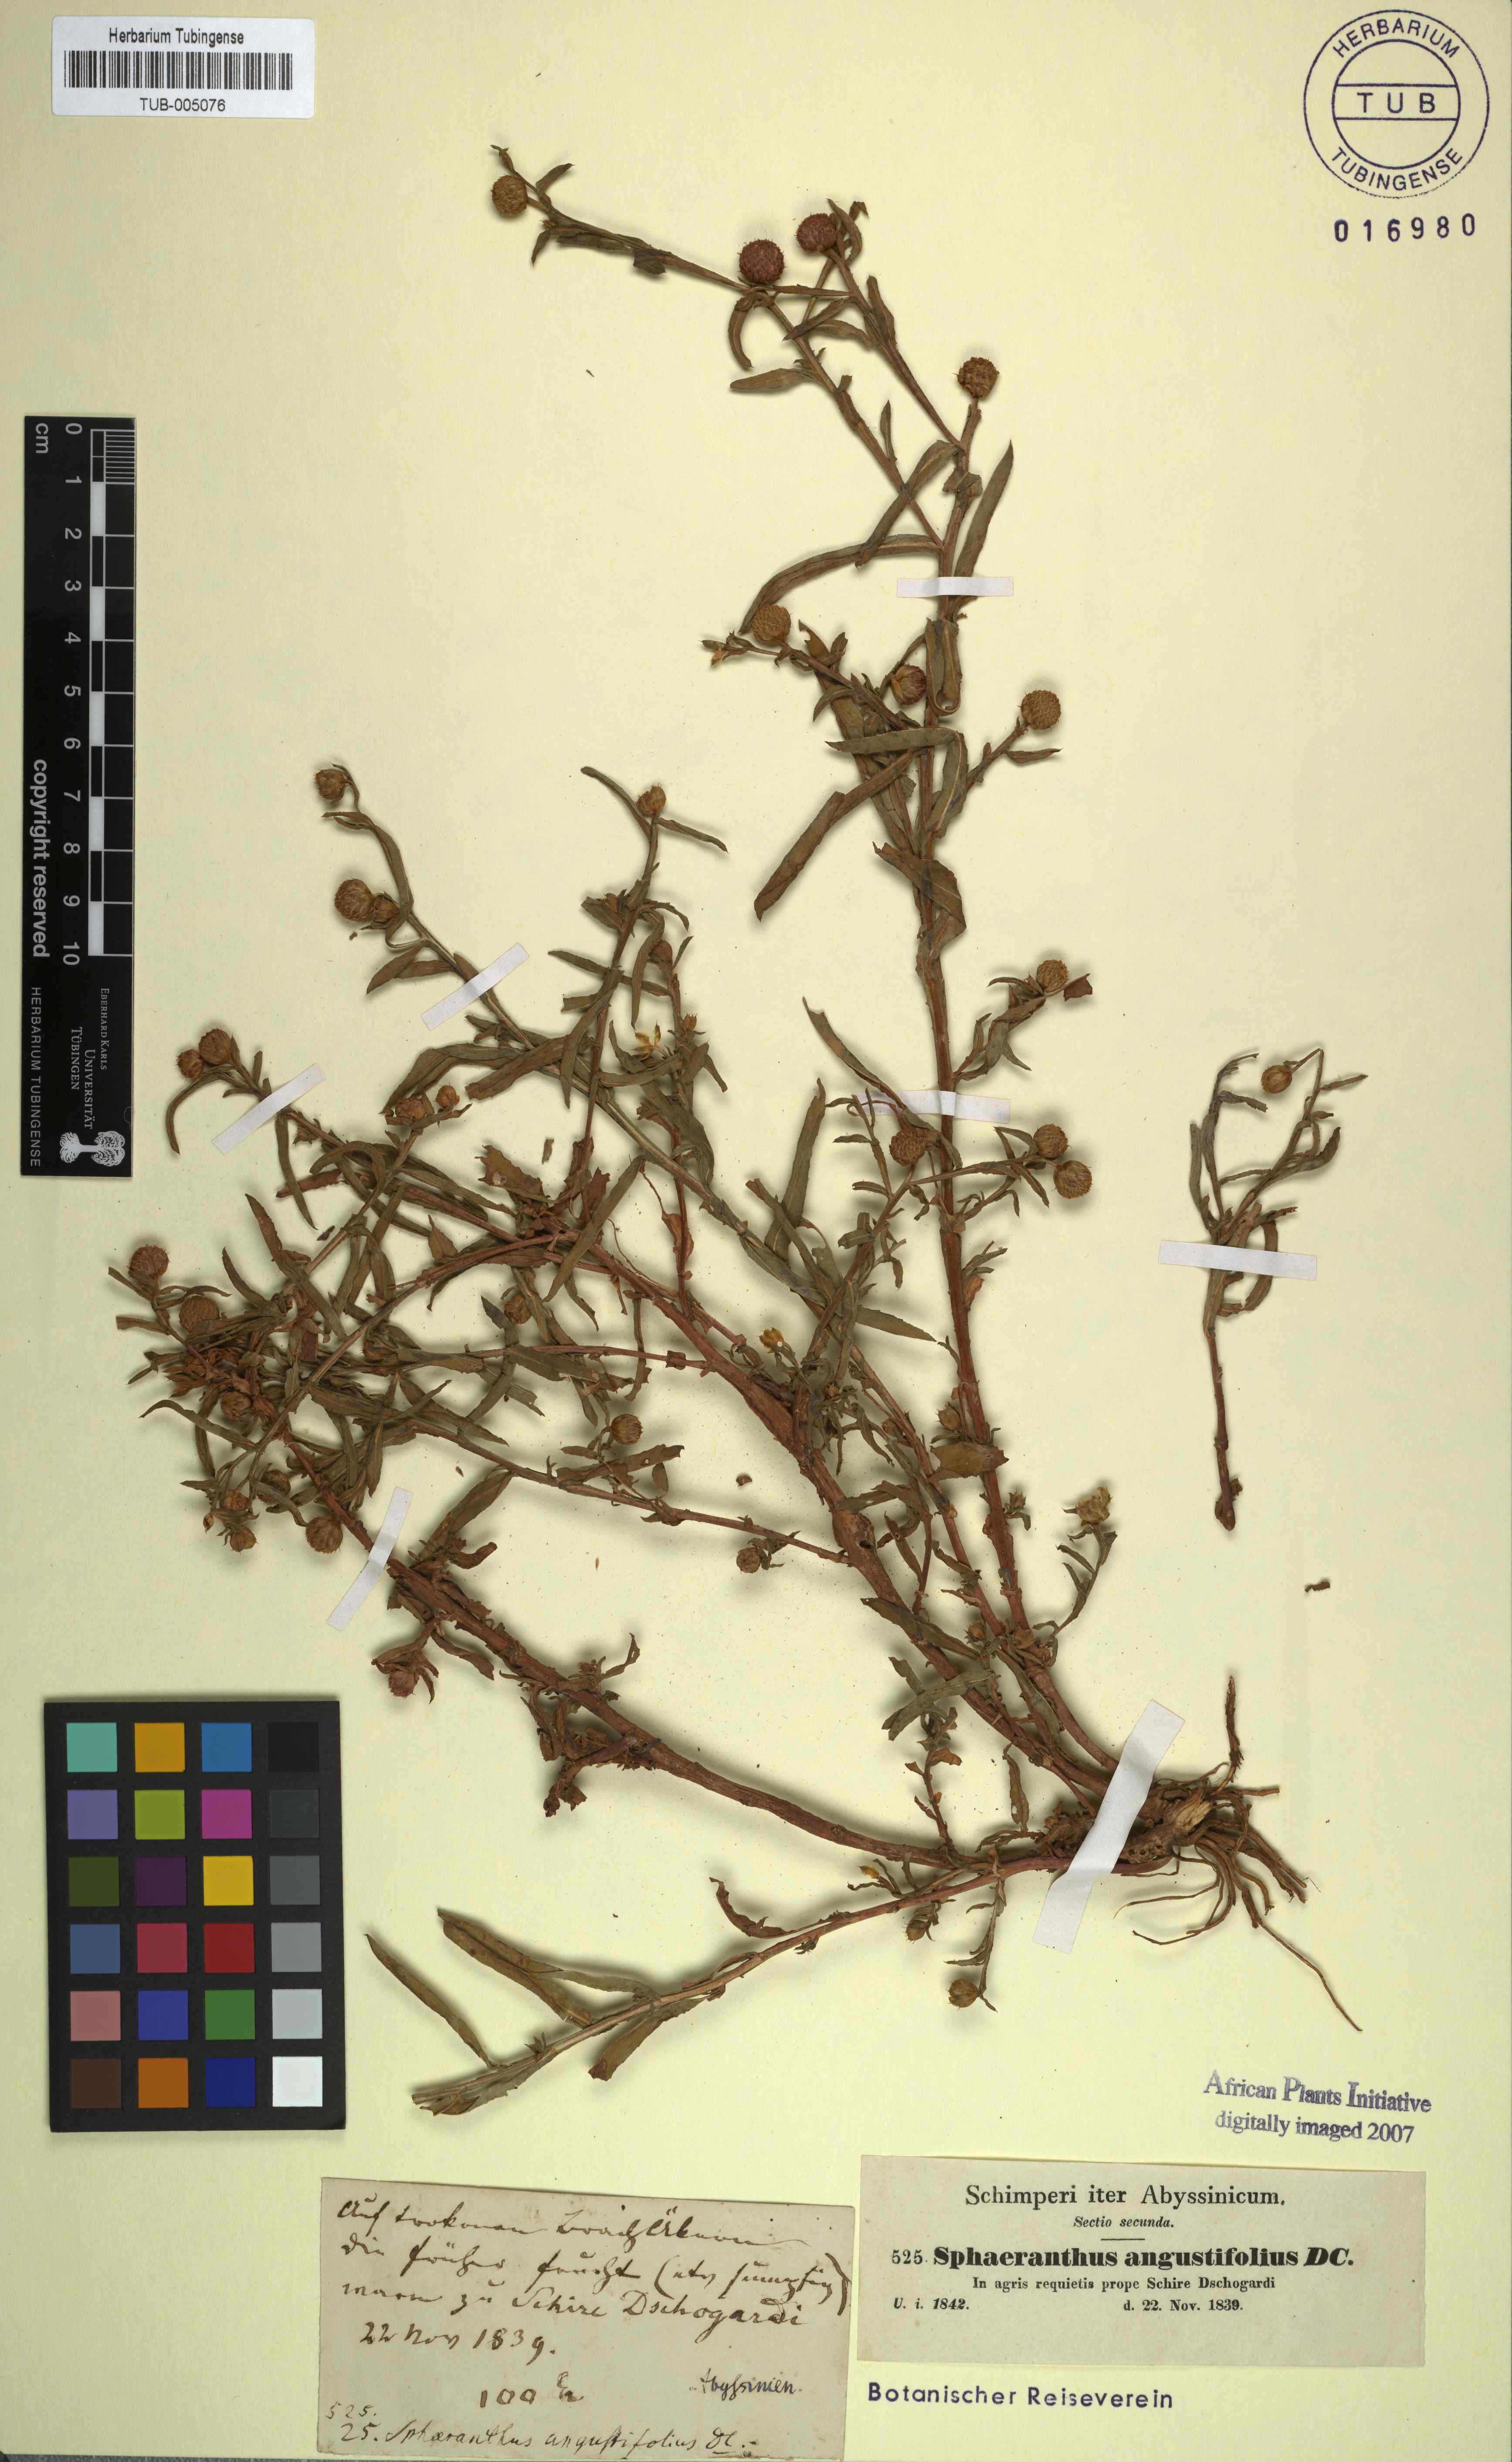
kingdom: Plantae
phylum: Tracheophyta
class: Magnoliopsida
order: Asterales
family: Asteraceae
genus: Sphaeranthus
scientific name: Sphaeranthus angustifolius
